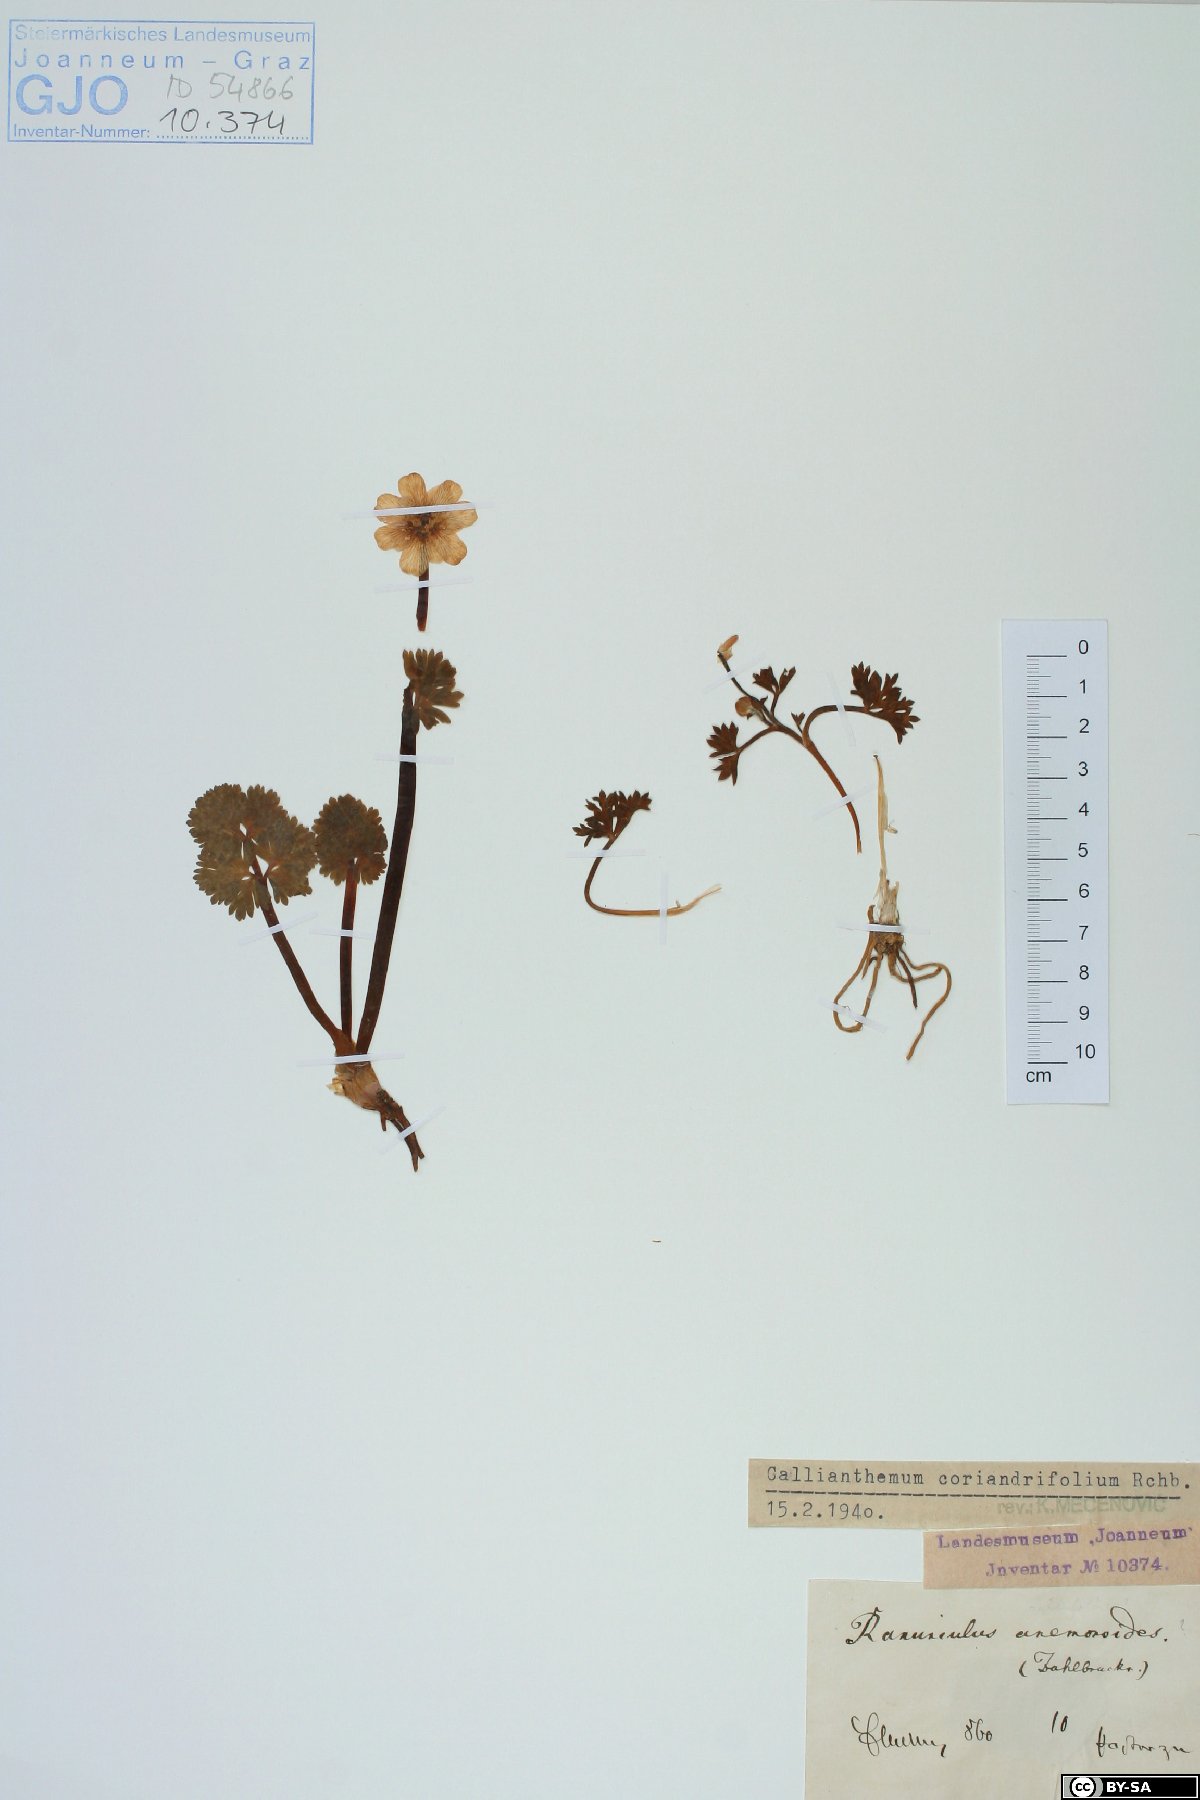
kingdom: Plantae
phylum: Tracheophyta
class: Magnoliopsida
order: Ranunculales
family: Ranunculaceae
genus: Callianthemum
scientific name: Callianthemum coriandrifolium
